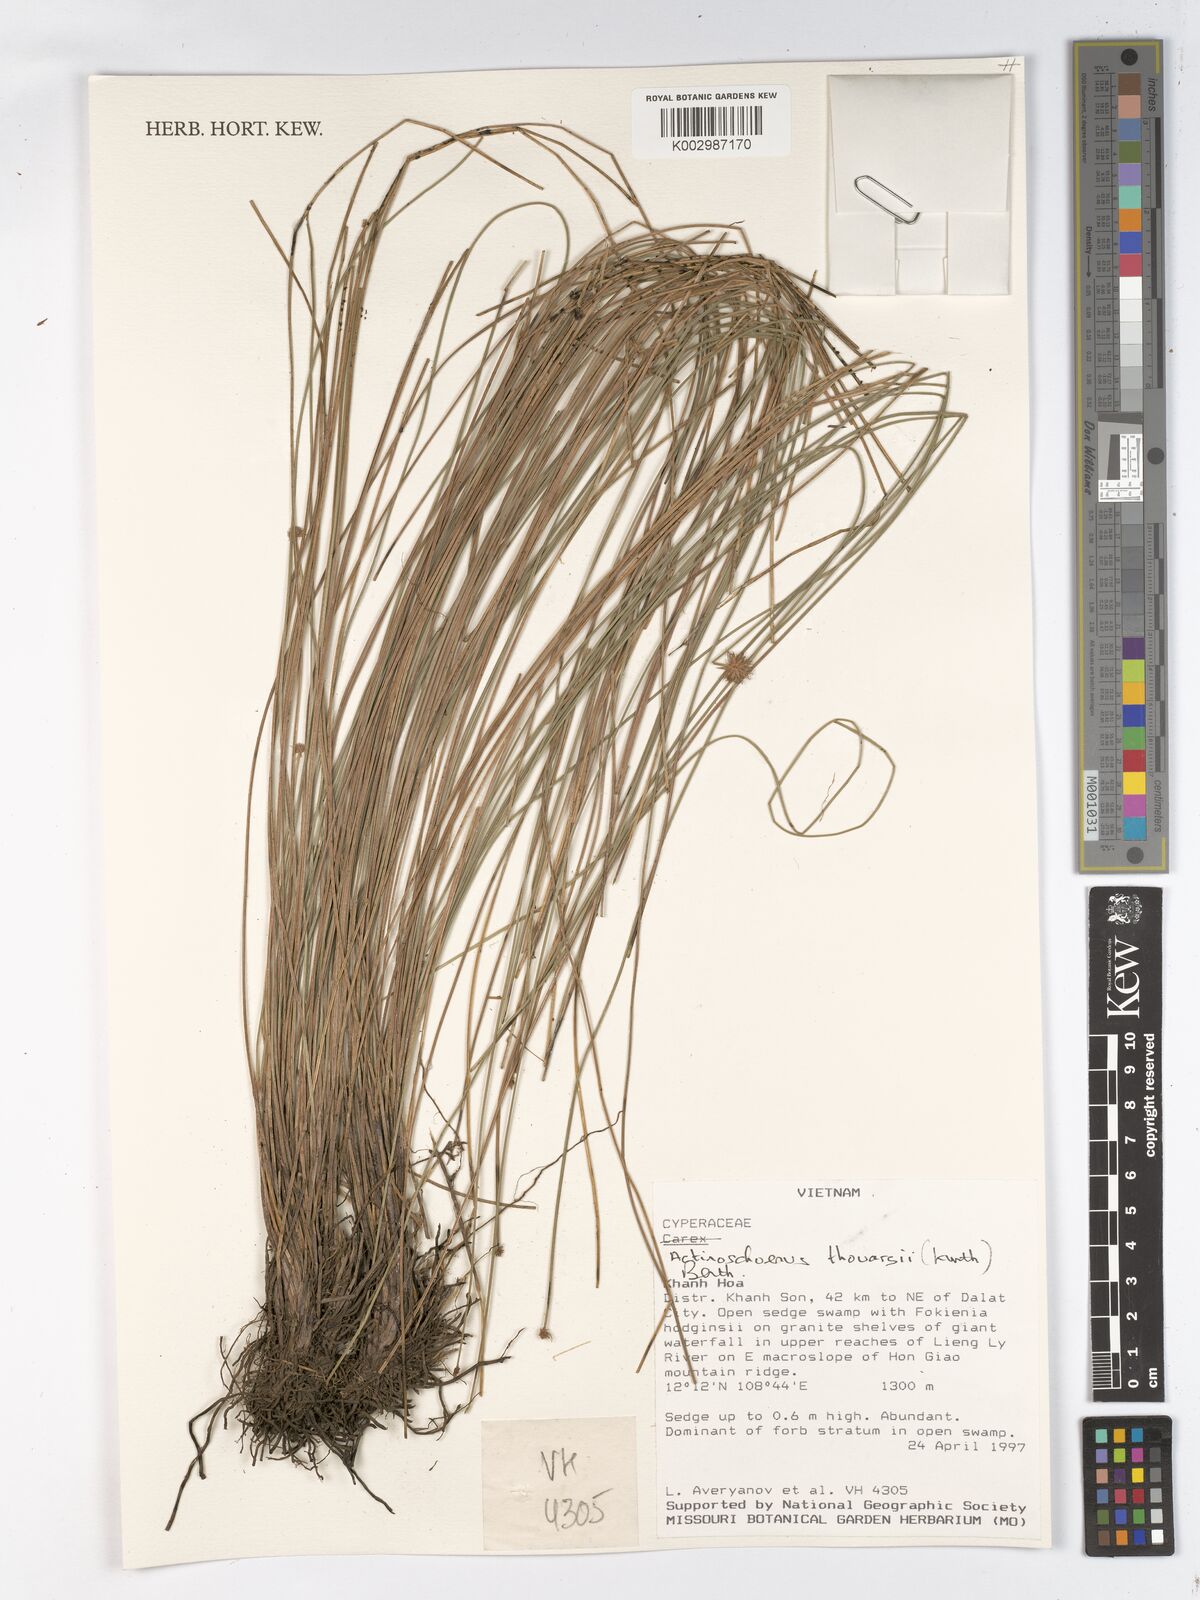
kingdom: Plantae
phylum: Tracheophyta
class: Liliopsida
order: Poales
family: Cyperaceae
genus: Actinoschoenus
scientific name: Actinoschoenus aphyllus
